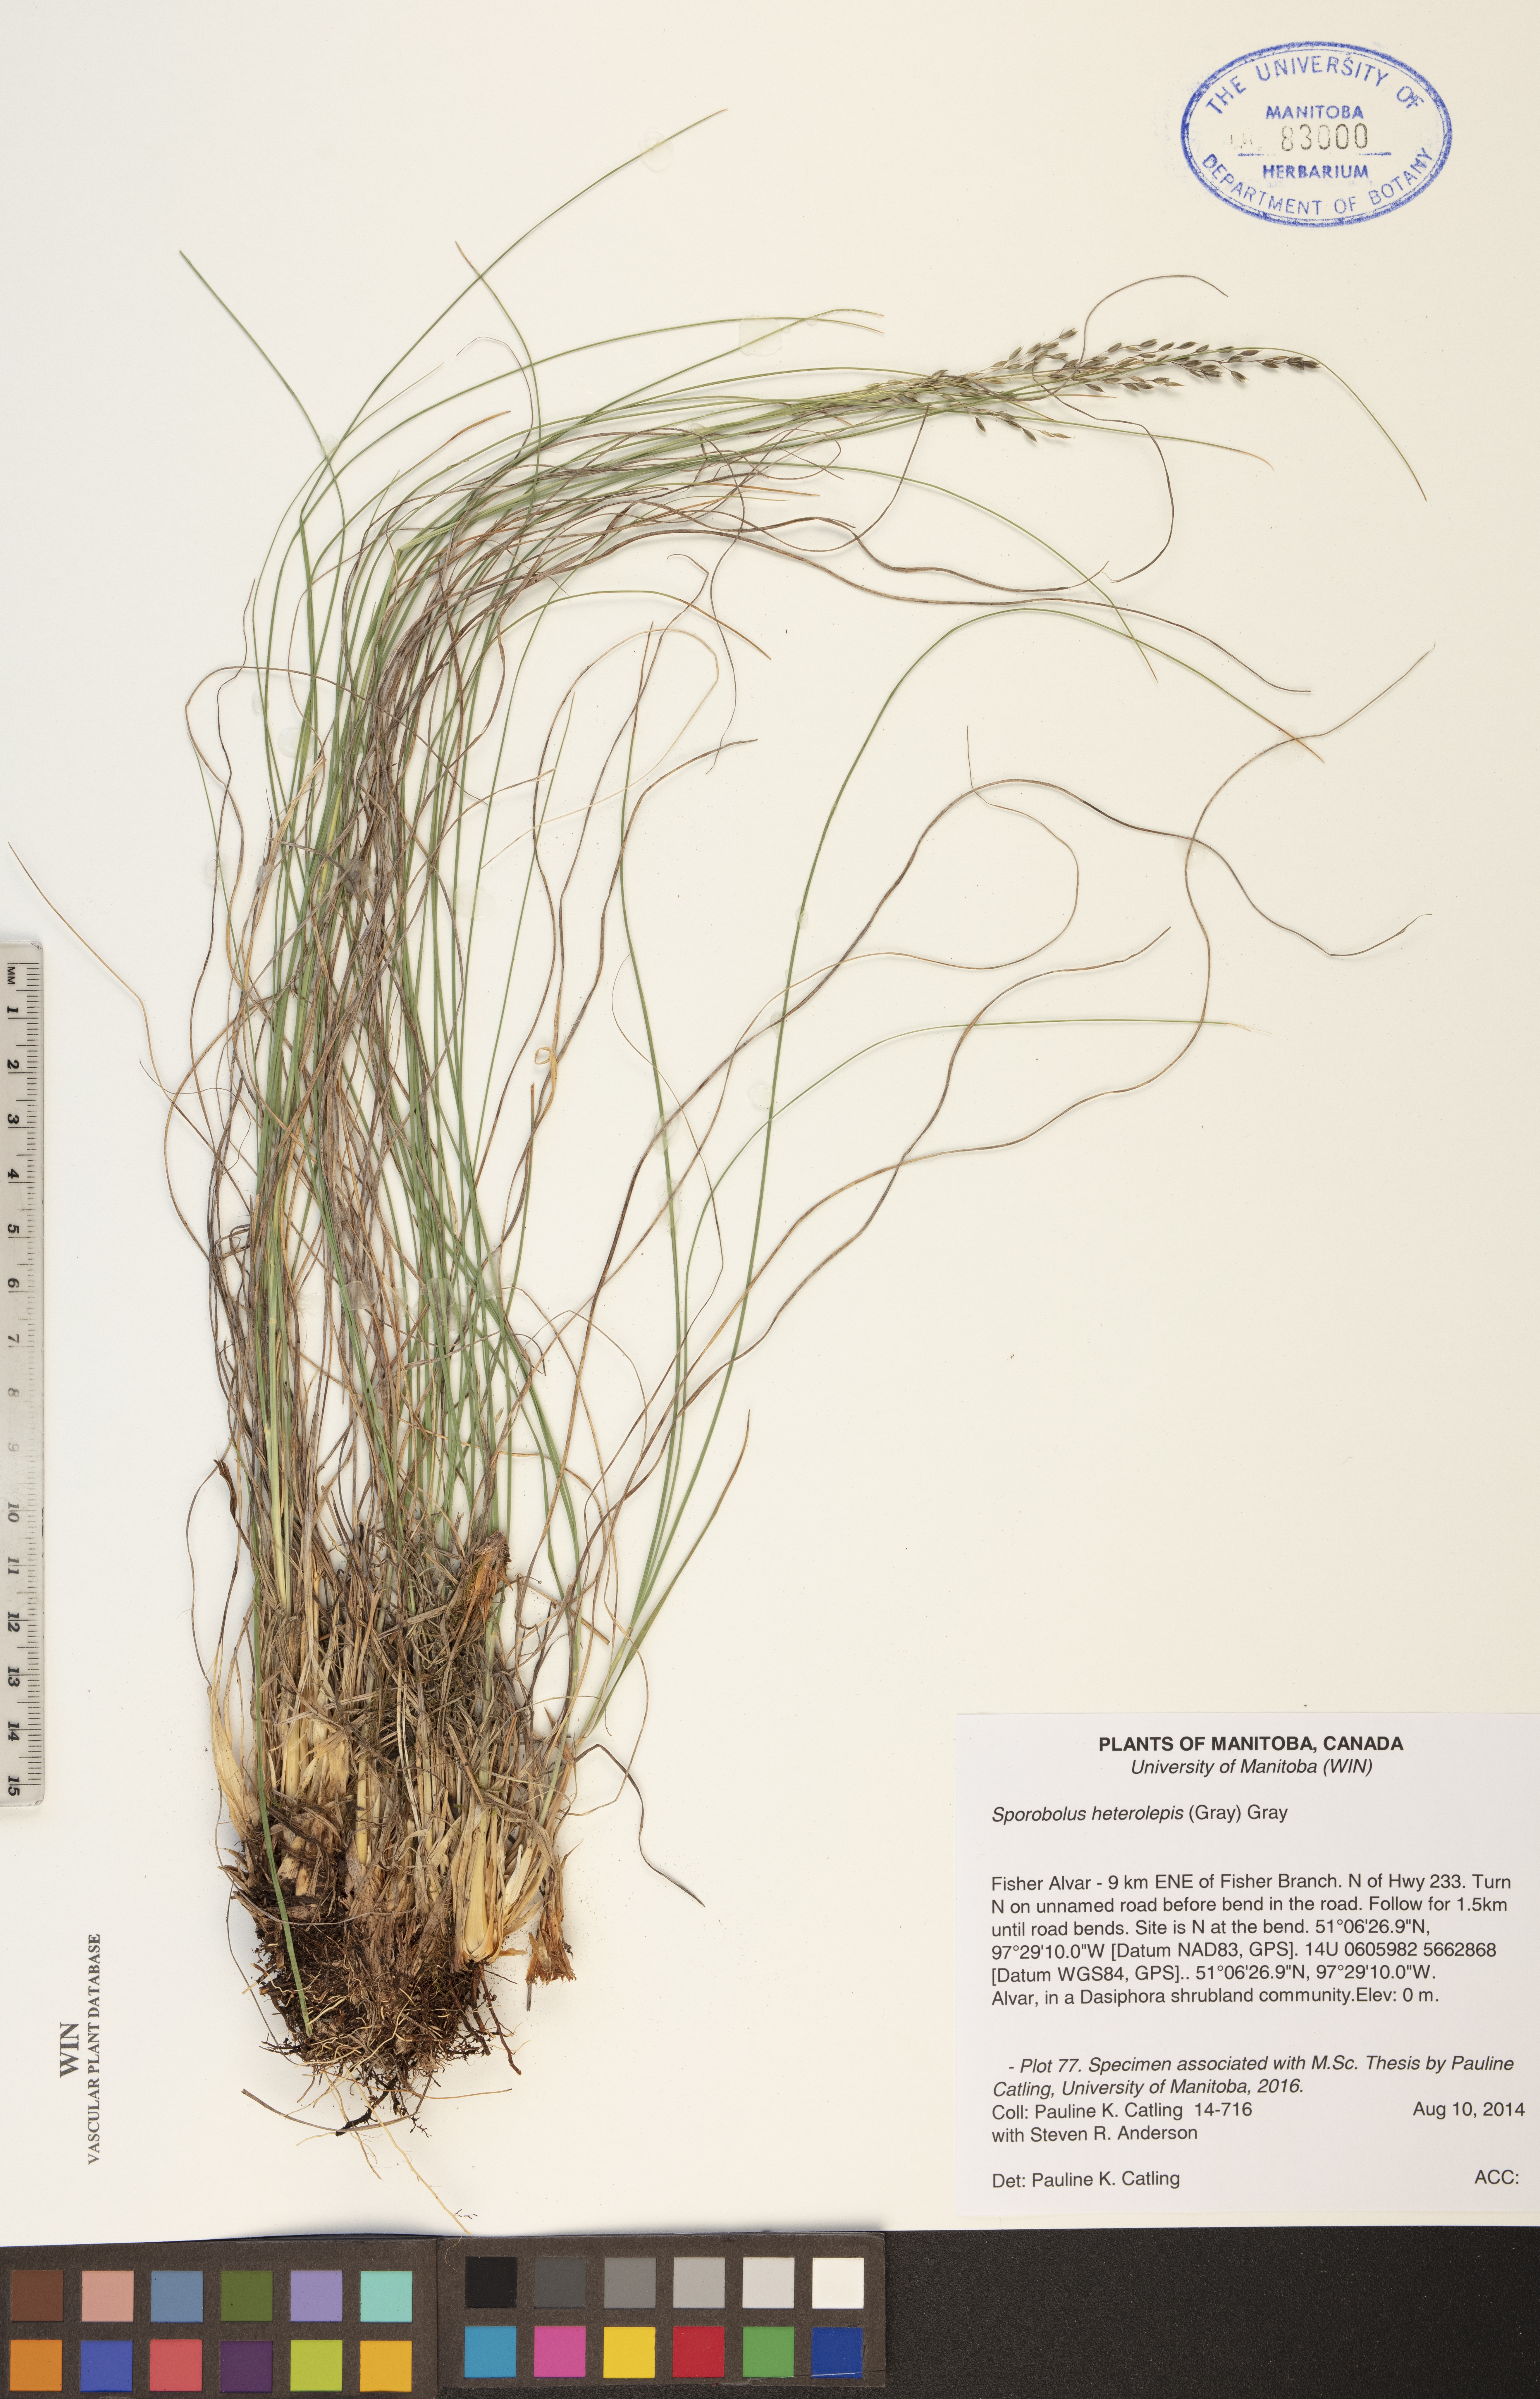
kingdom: Plantae
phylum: Tracheophyta
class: Liliopsida
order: Poales
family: Poaceae
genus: Sporobolus
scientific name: Sporobolus heterolepis
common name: Prairie dropseed
